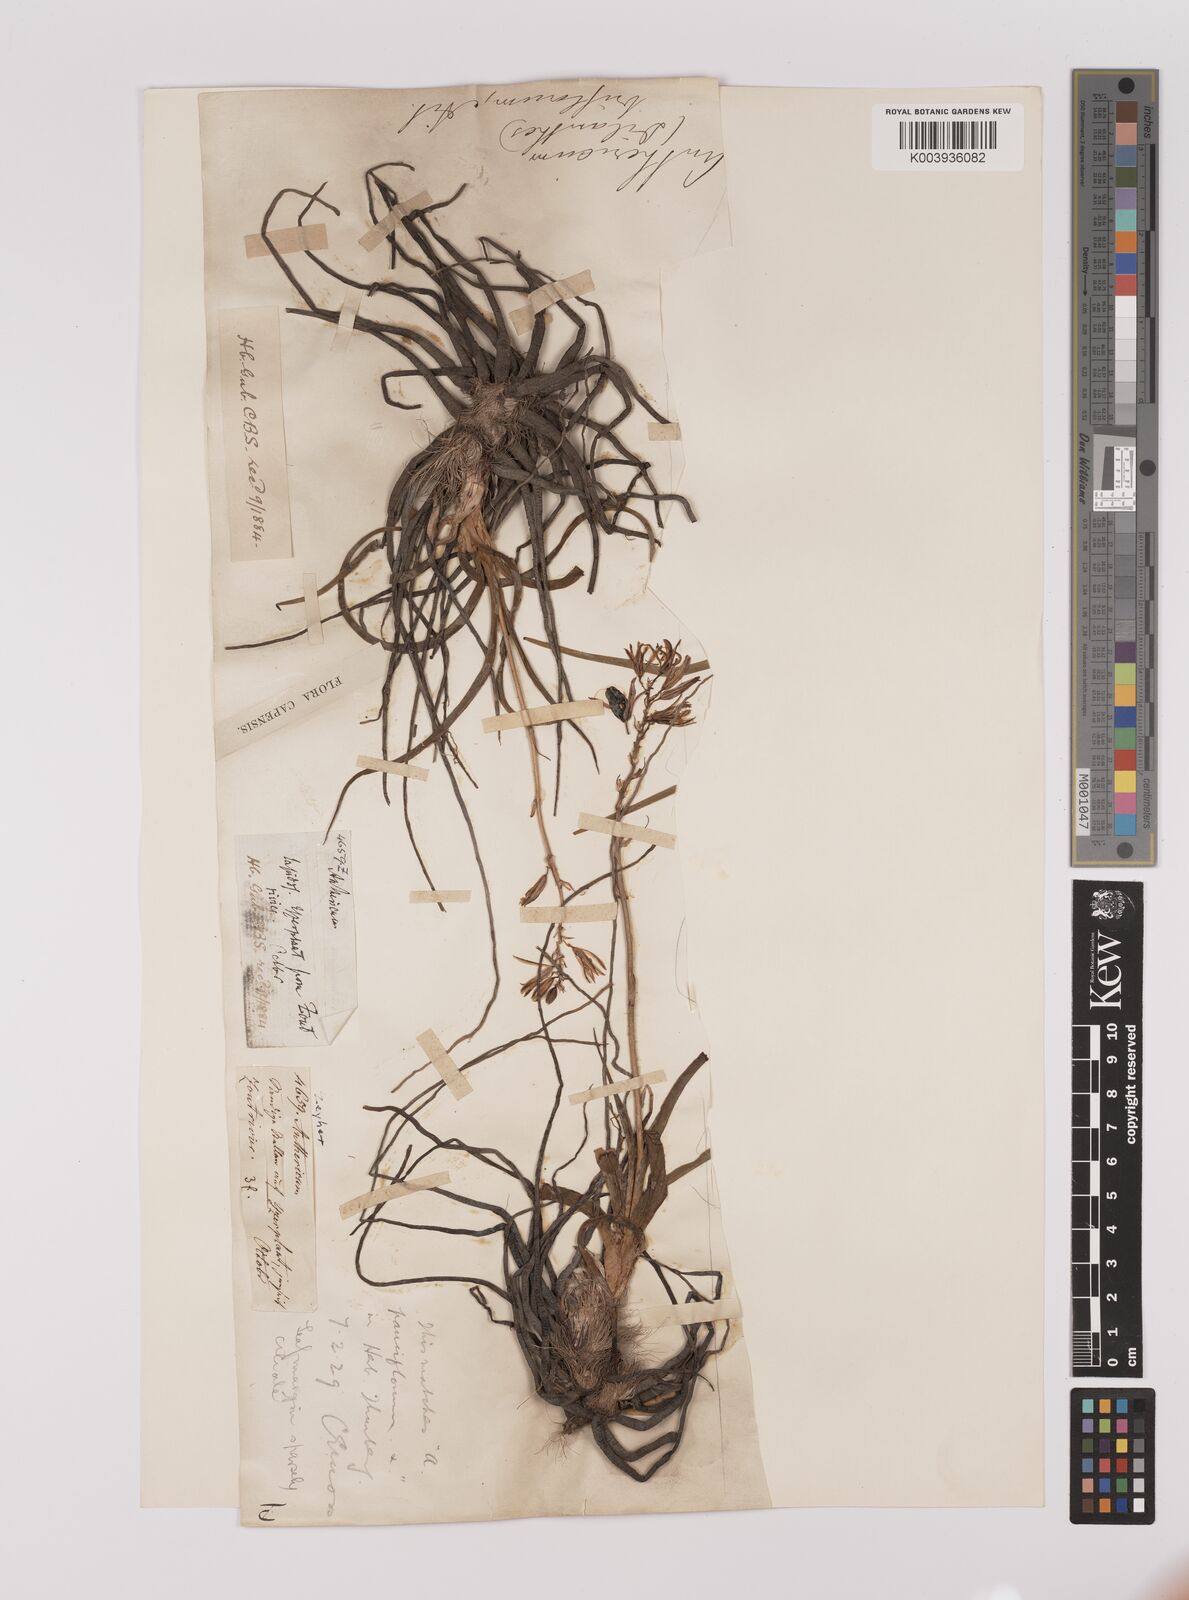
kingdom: Plantae
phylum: Tracheophyta
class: Liliopsida
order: Asparagales
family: Asparagaceae
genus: Chlorophytum
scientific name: Chlorophytum triflorum
